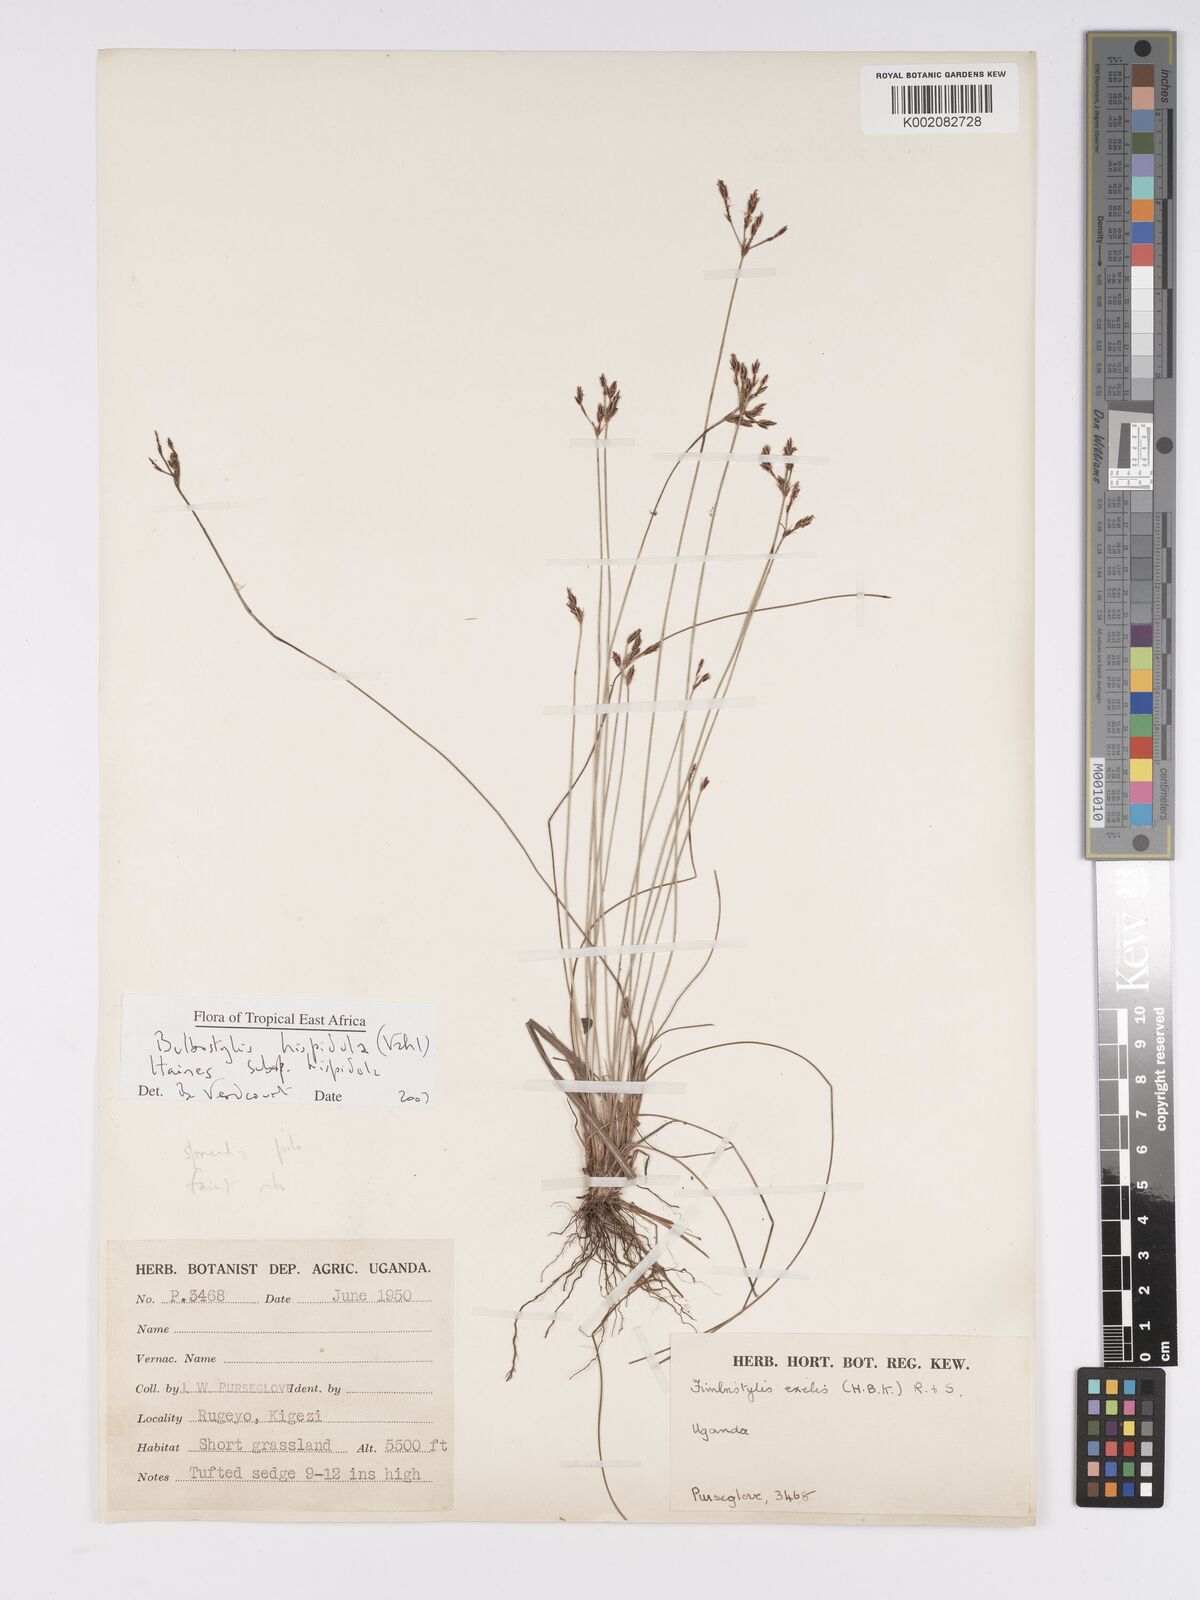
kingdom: Plantae
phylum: Tracheophyta
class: Liliopsida
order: Poales
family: Cyperaceae
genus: Bulbostylis
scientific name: Bulbostylis
